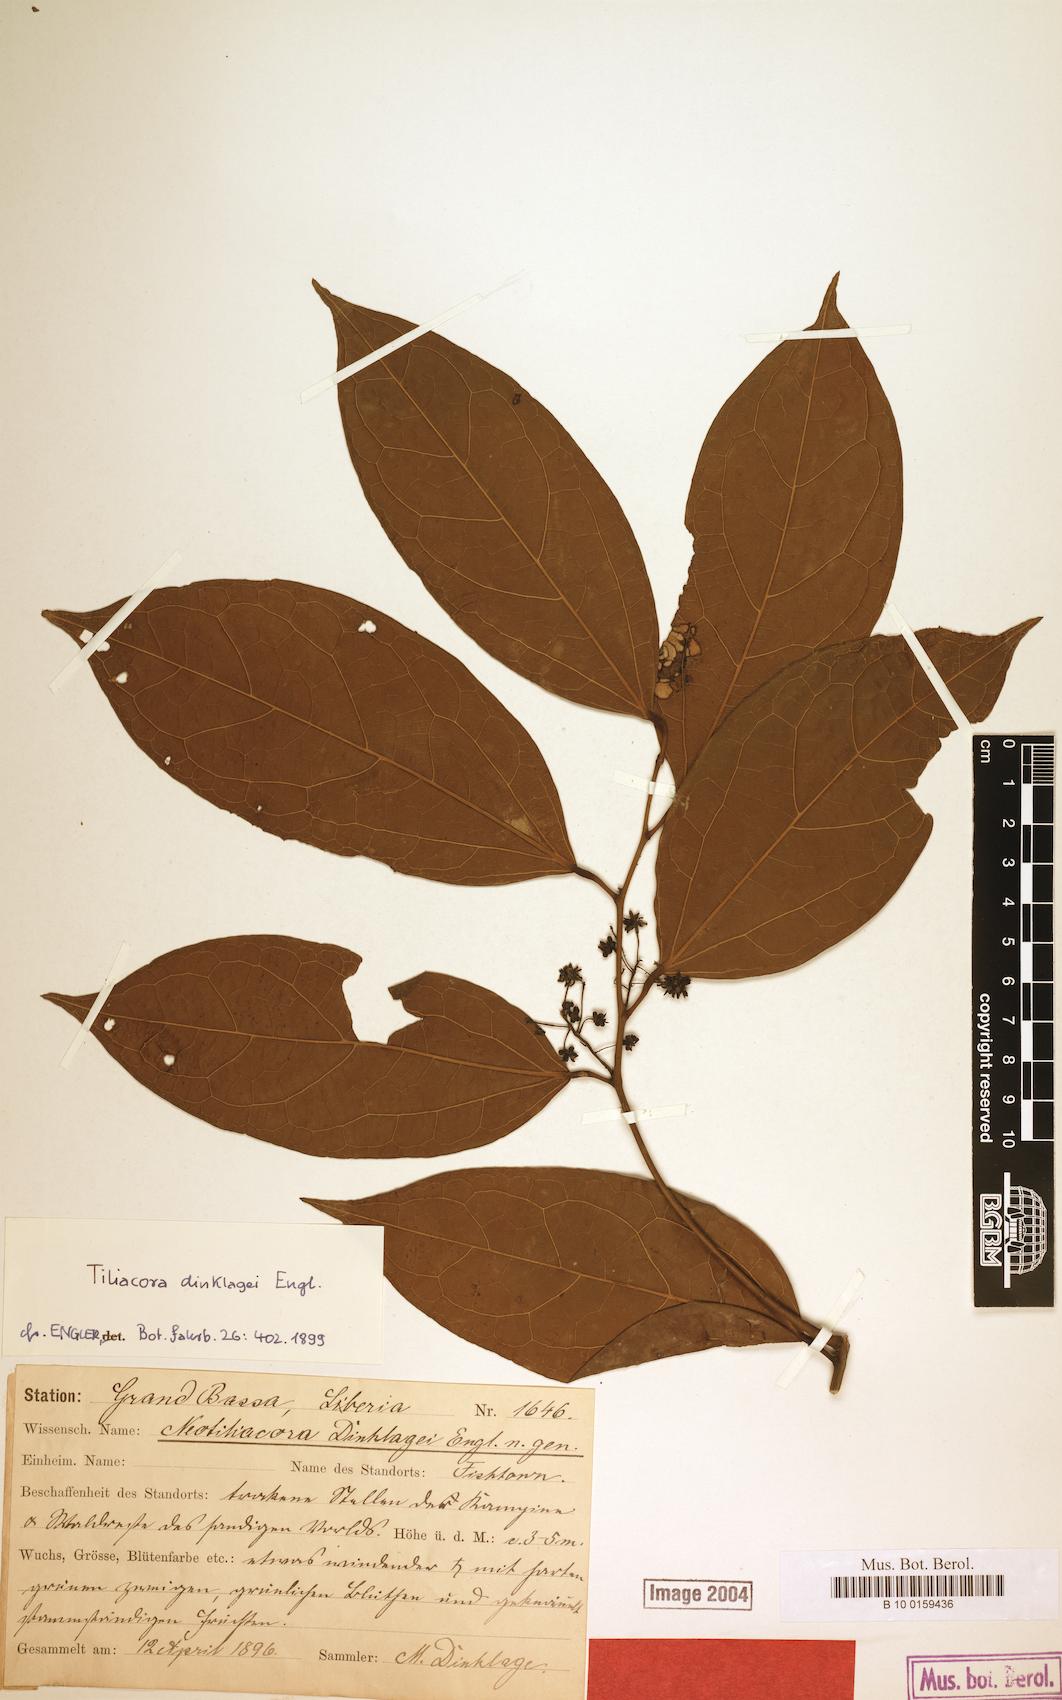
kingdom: Plantae
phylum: Tracheophyta
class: Magnoliopsida
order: Ranunculales
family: Menispermaceae
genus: Tiliacora
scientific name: Tiliacora leonensis
